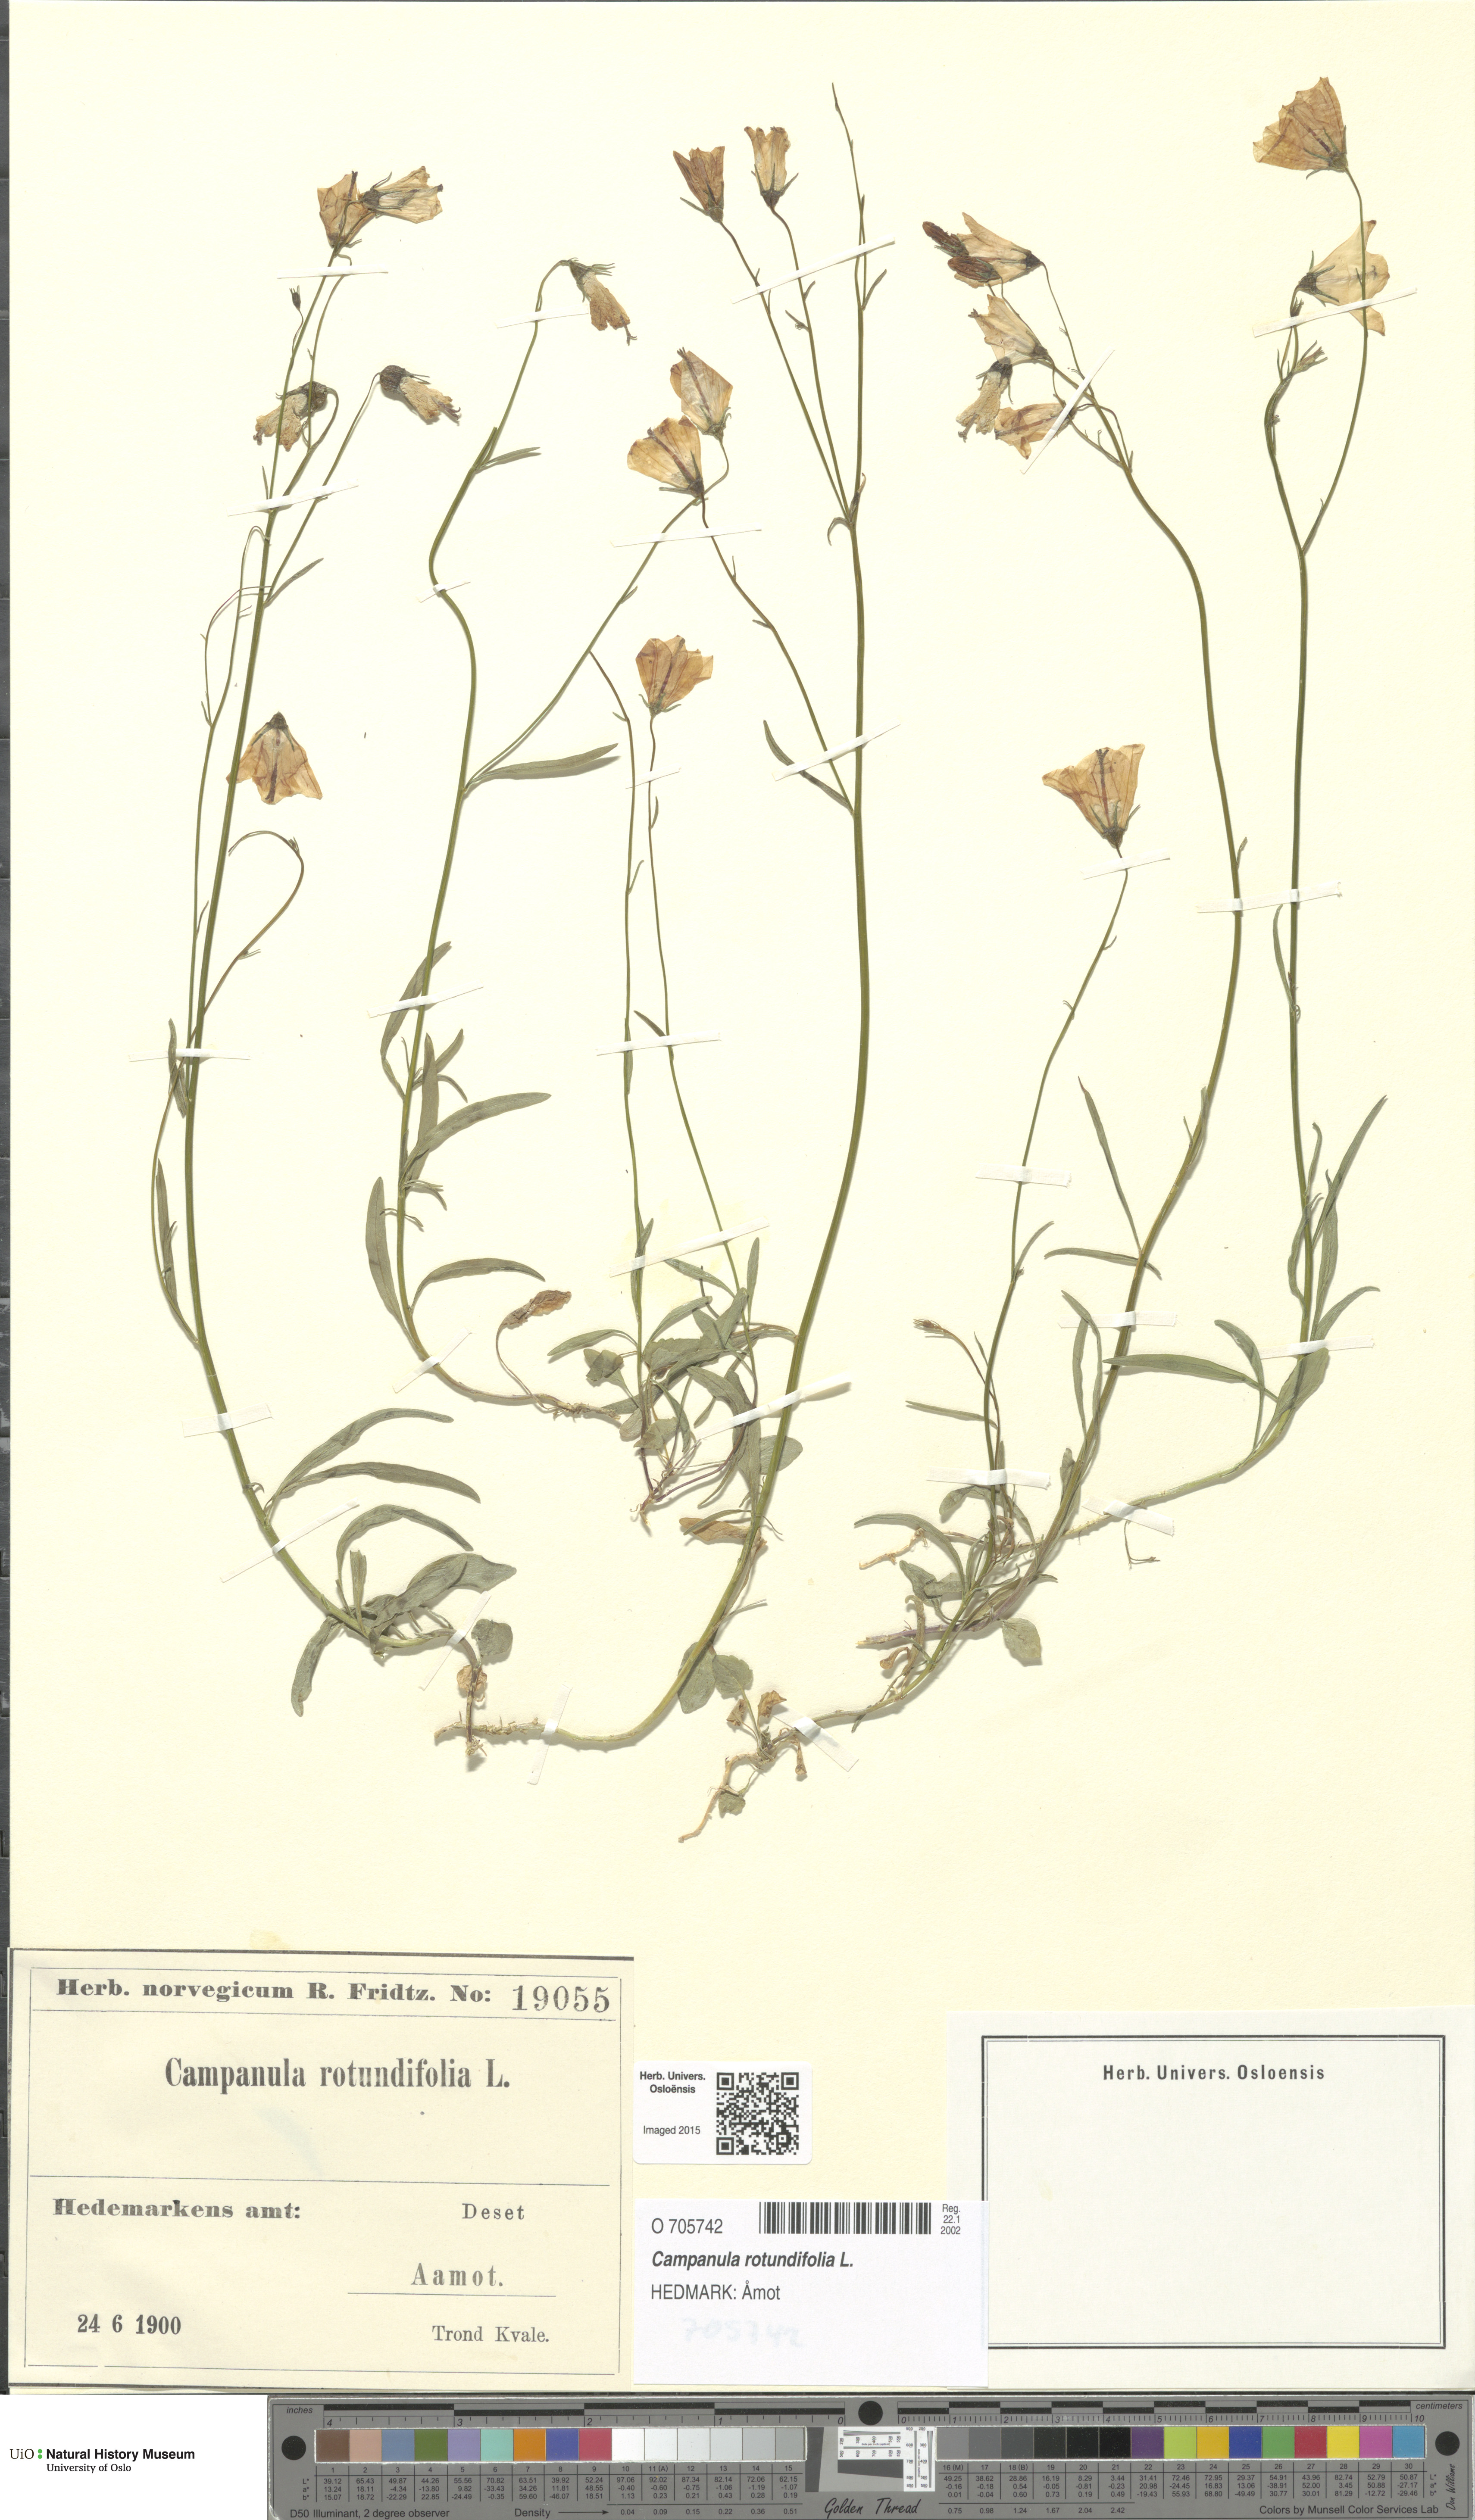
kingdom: Plantae
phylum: Tracheophyta
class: Magnoliopsida
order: Asterales
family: Campanulaceae
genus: Campanula
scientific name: Campanula rotundifolia
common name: Harebell
